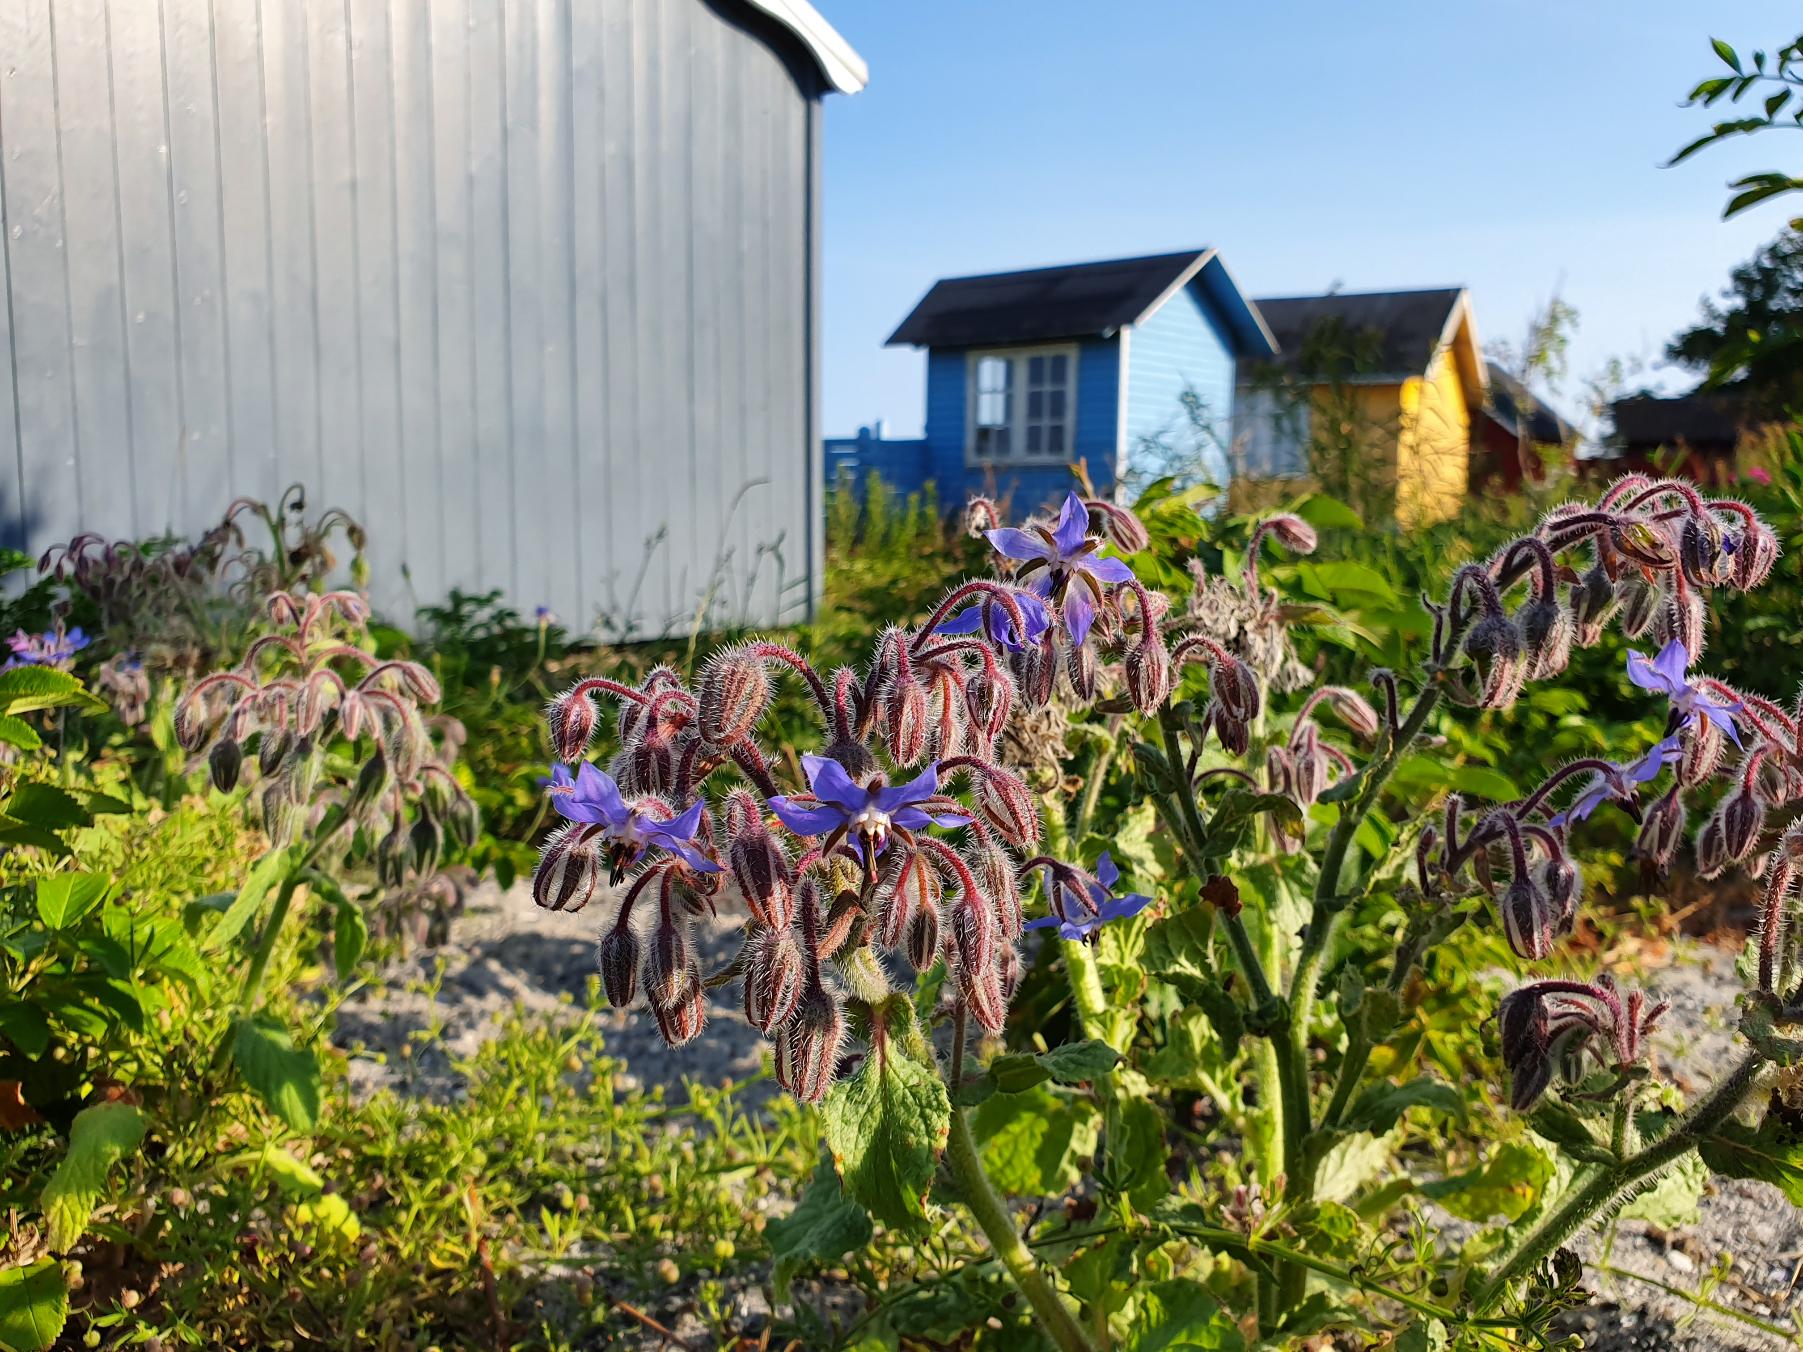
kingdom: Plantae
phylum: Tracheophyta
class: Magnoliopsida
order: Boraginales
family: Boraginaceae
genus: Borago
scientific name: Borago officinalis
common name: Hjulkrone
